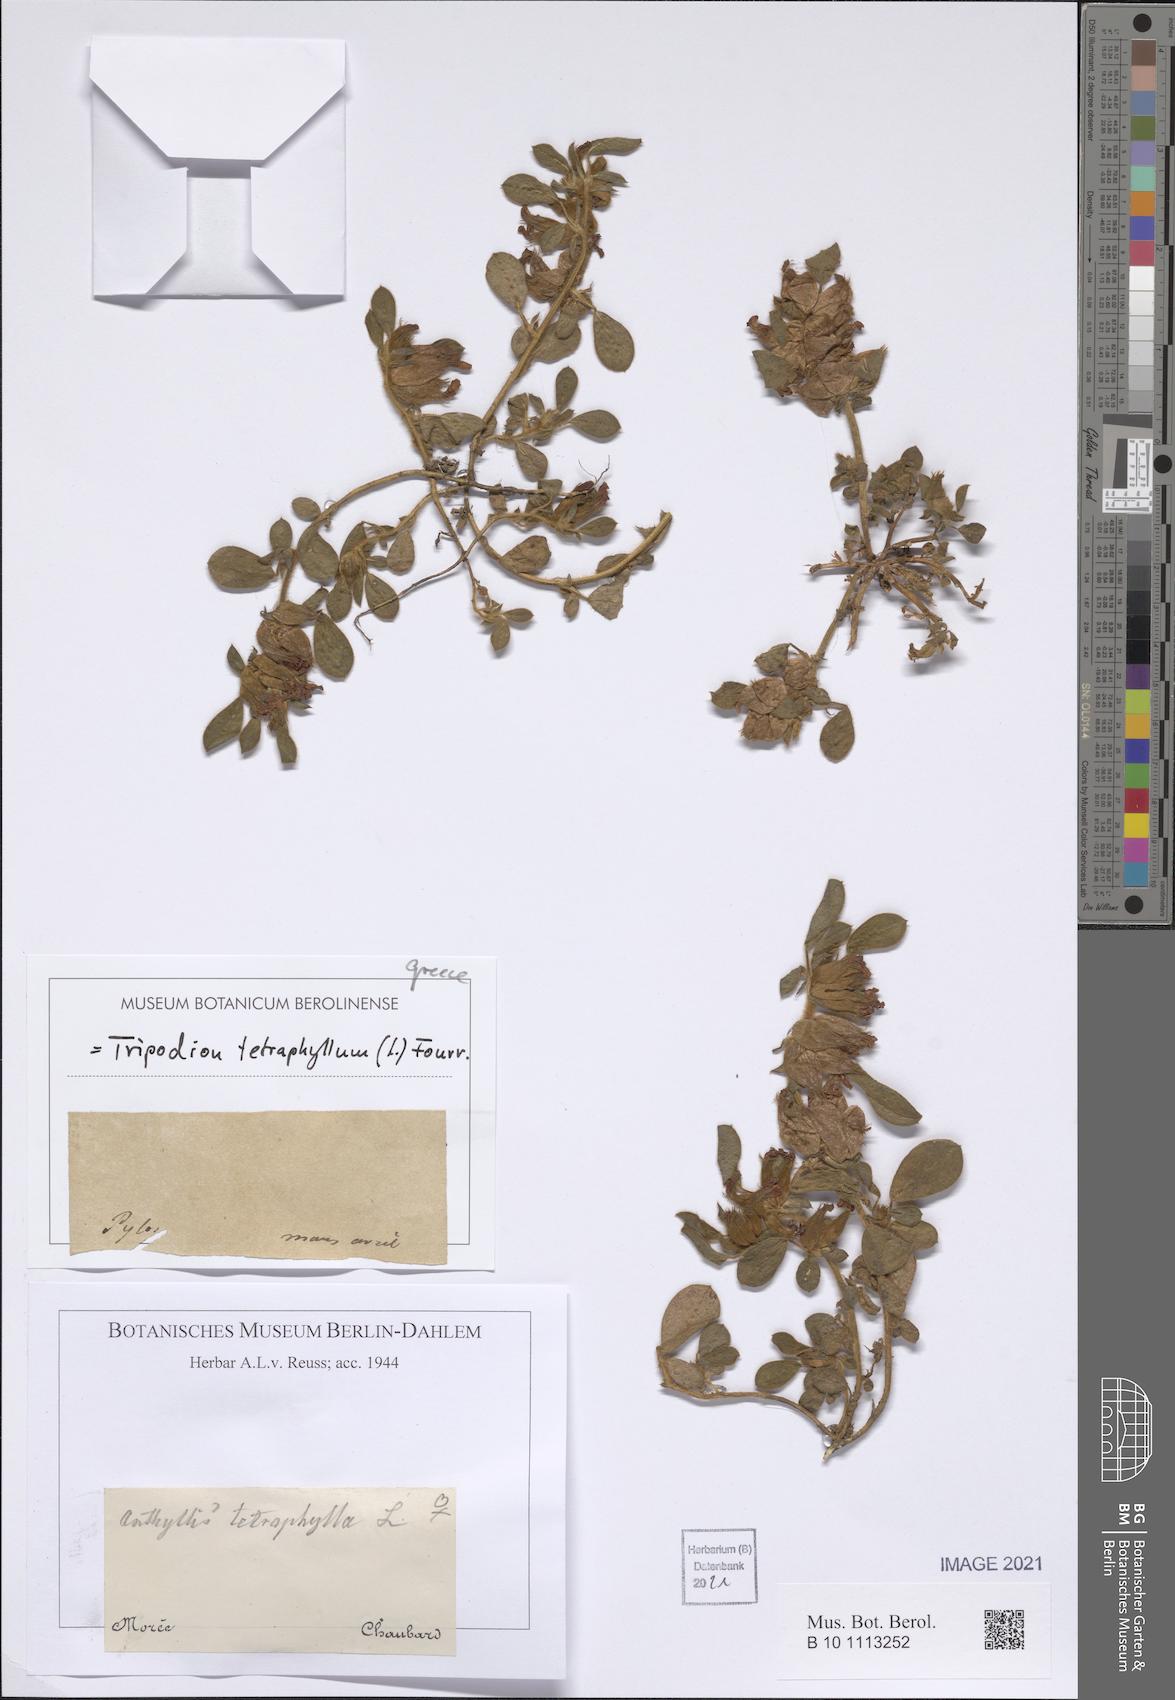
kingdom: Plantae
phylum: Tracheophyta
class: Magnoliopsida
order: Fabales
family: Fabaceae
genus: Tripodion
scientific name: Tripodion tetraphyllum
